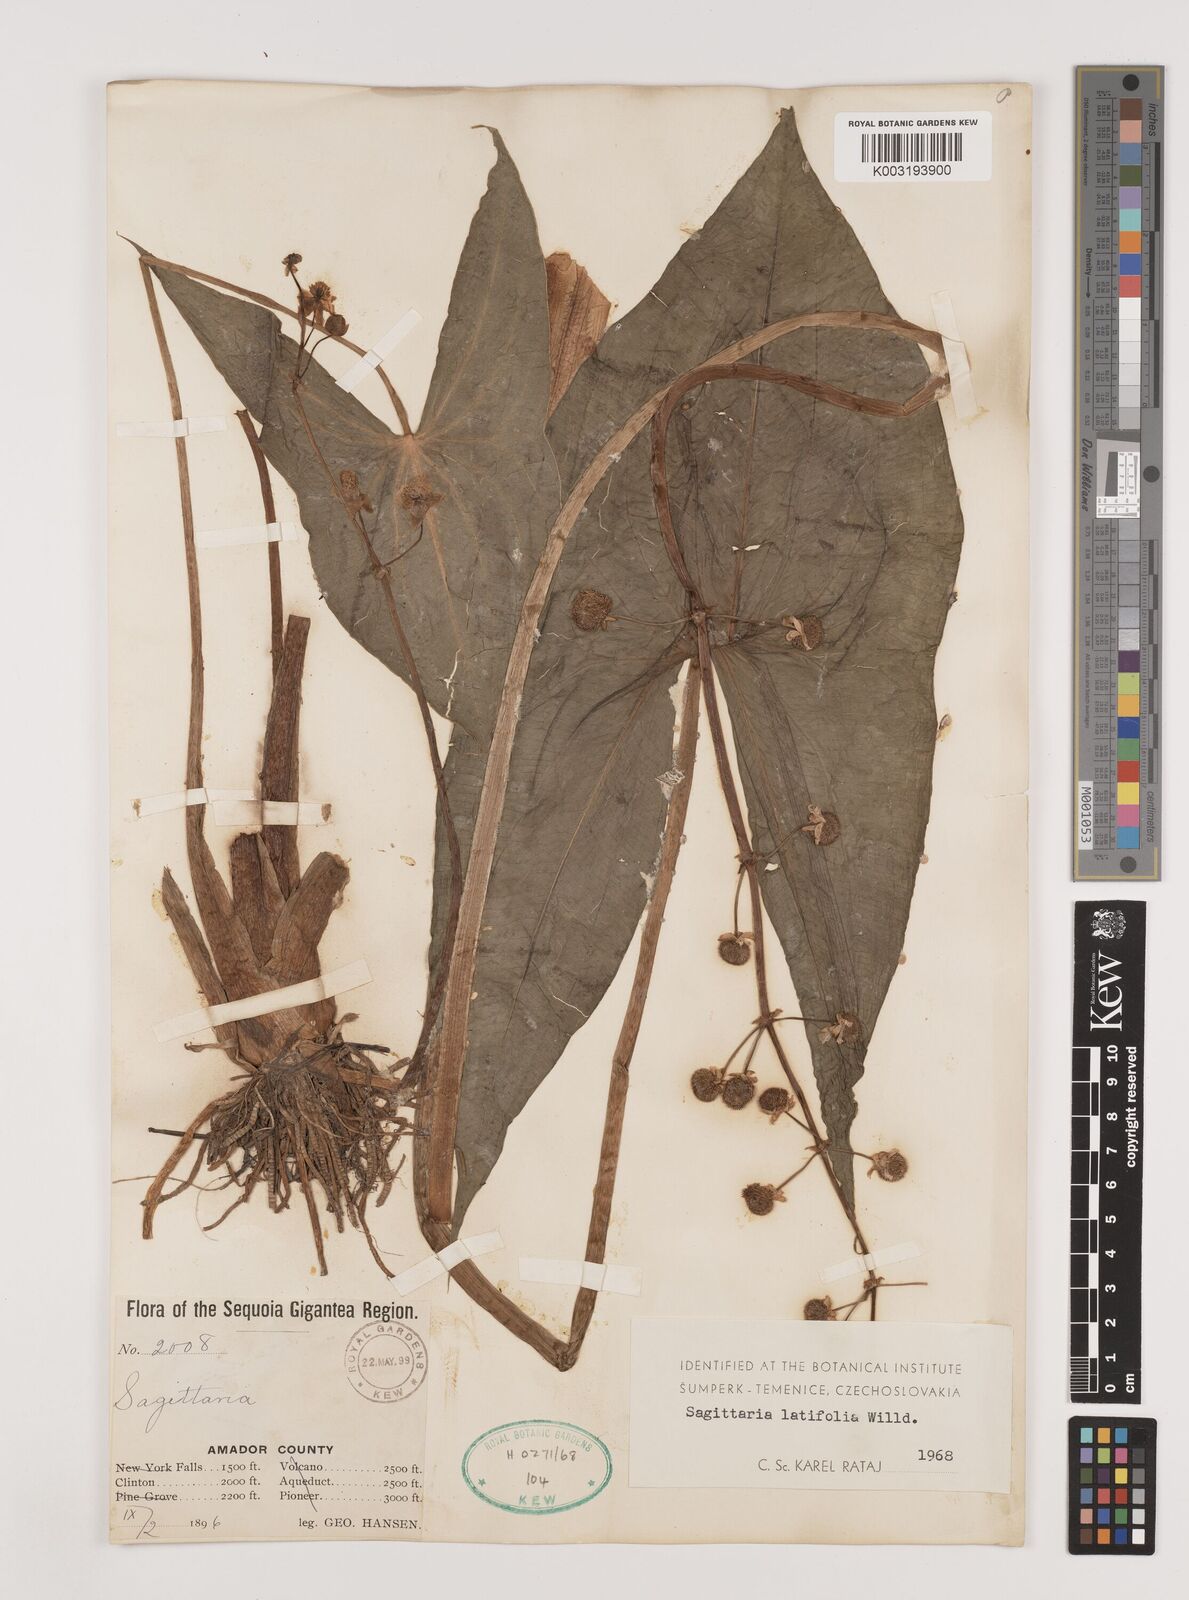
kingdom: Plantae
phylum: Tracheophyta
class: Liliopsida
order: Alismatales
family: Alismataceae
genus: Sagittaria
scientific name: Sagittaria latifolia
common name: Duck-potato
